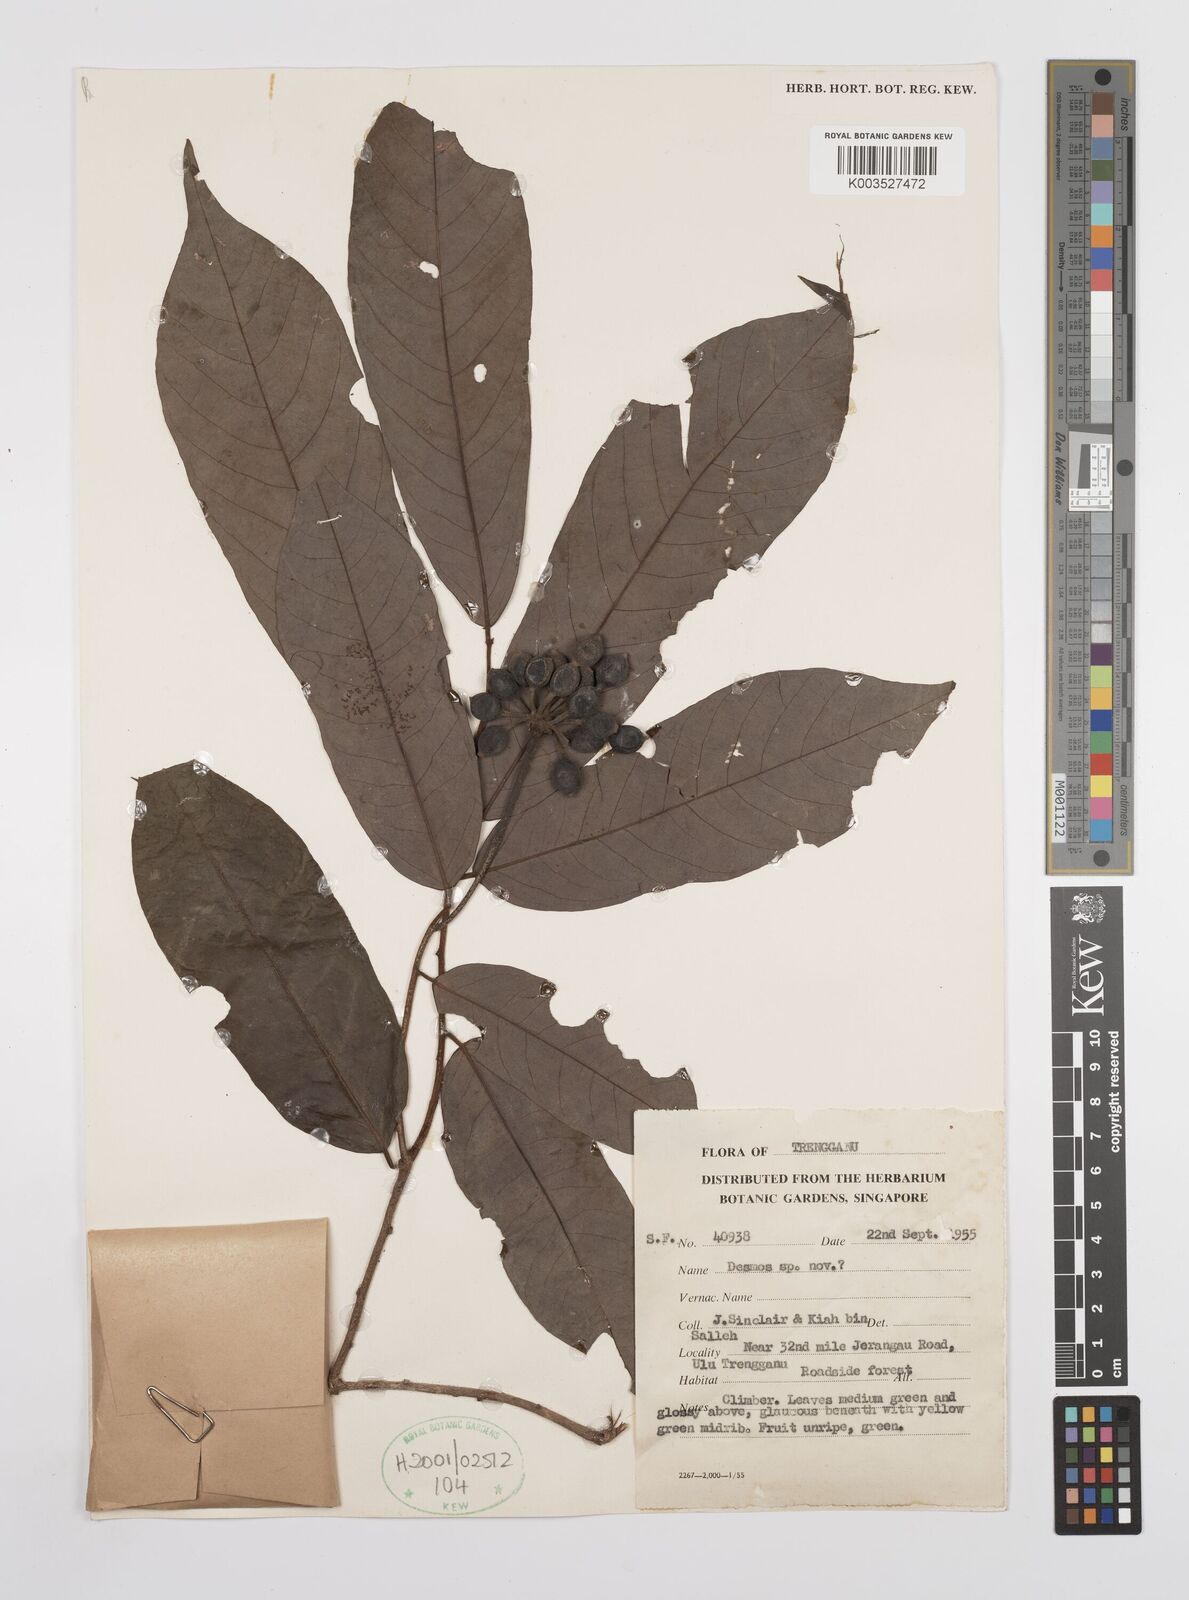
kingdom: Plantae
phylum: Tracheophyta
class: Magnoliopsida
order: Magnoliales
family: Annonaceae
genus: Desmos
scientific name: Desmos
